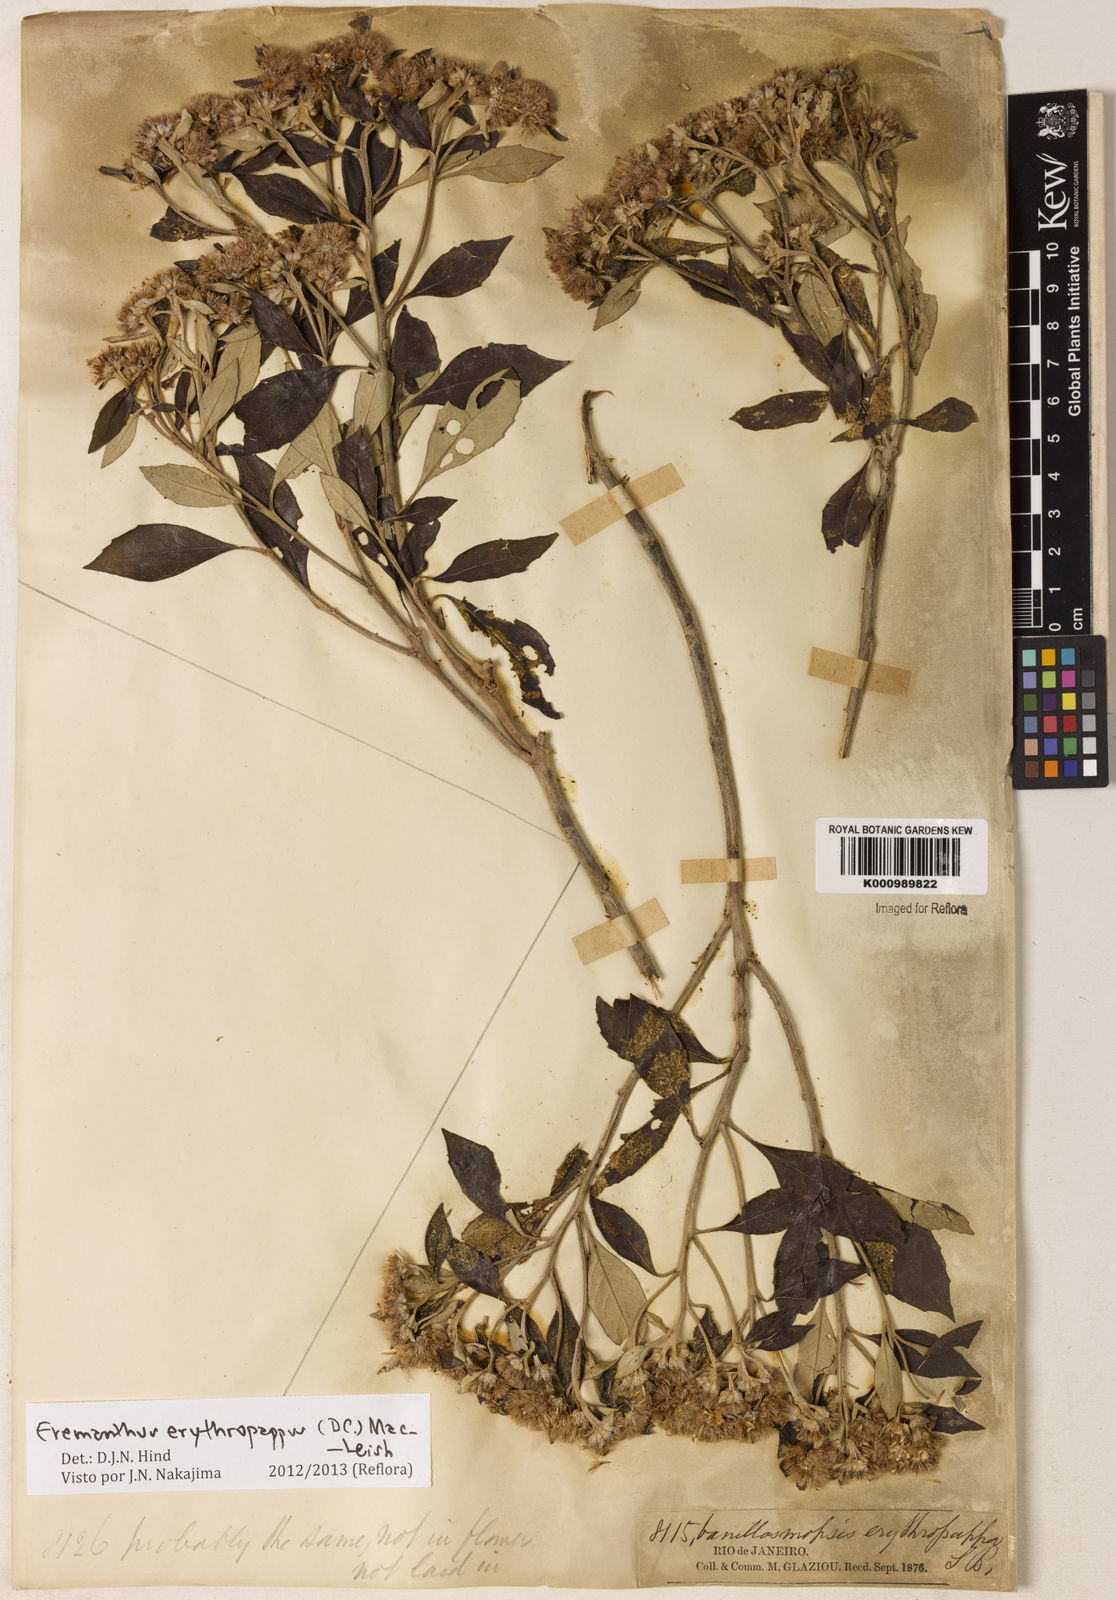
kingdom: Plantae
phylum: Tracheophyta
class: Magnoliopsida
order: Asterales
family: Asteraceae
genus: Eremanthus
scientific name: Eremanthus erythropappus
